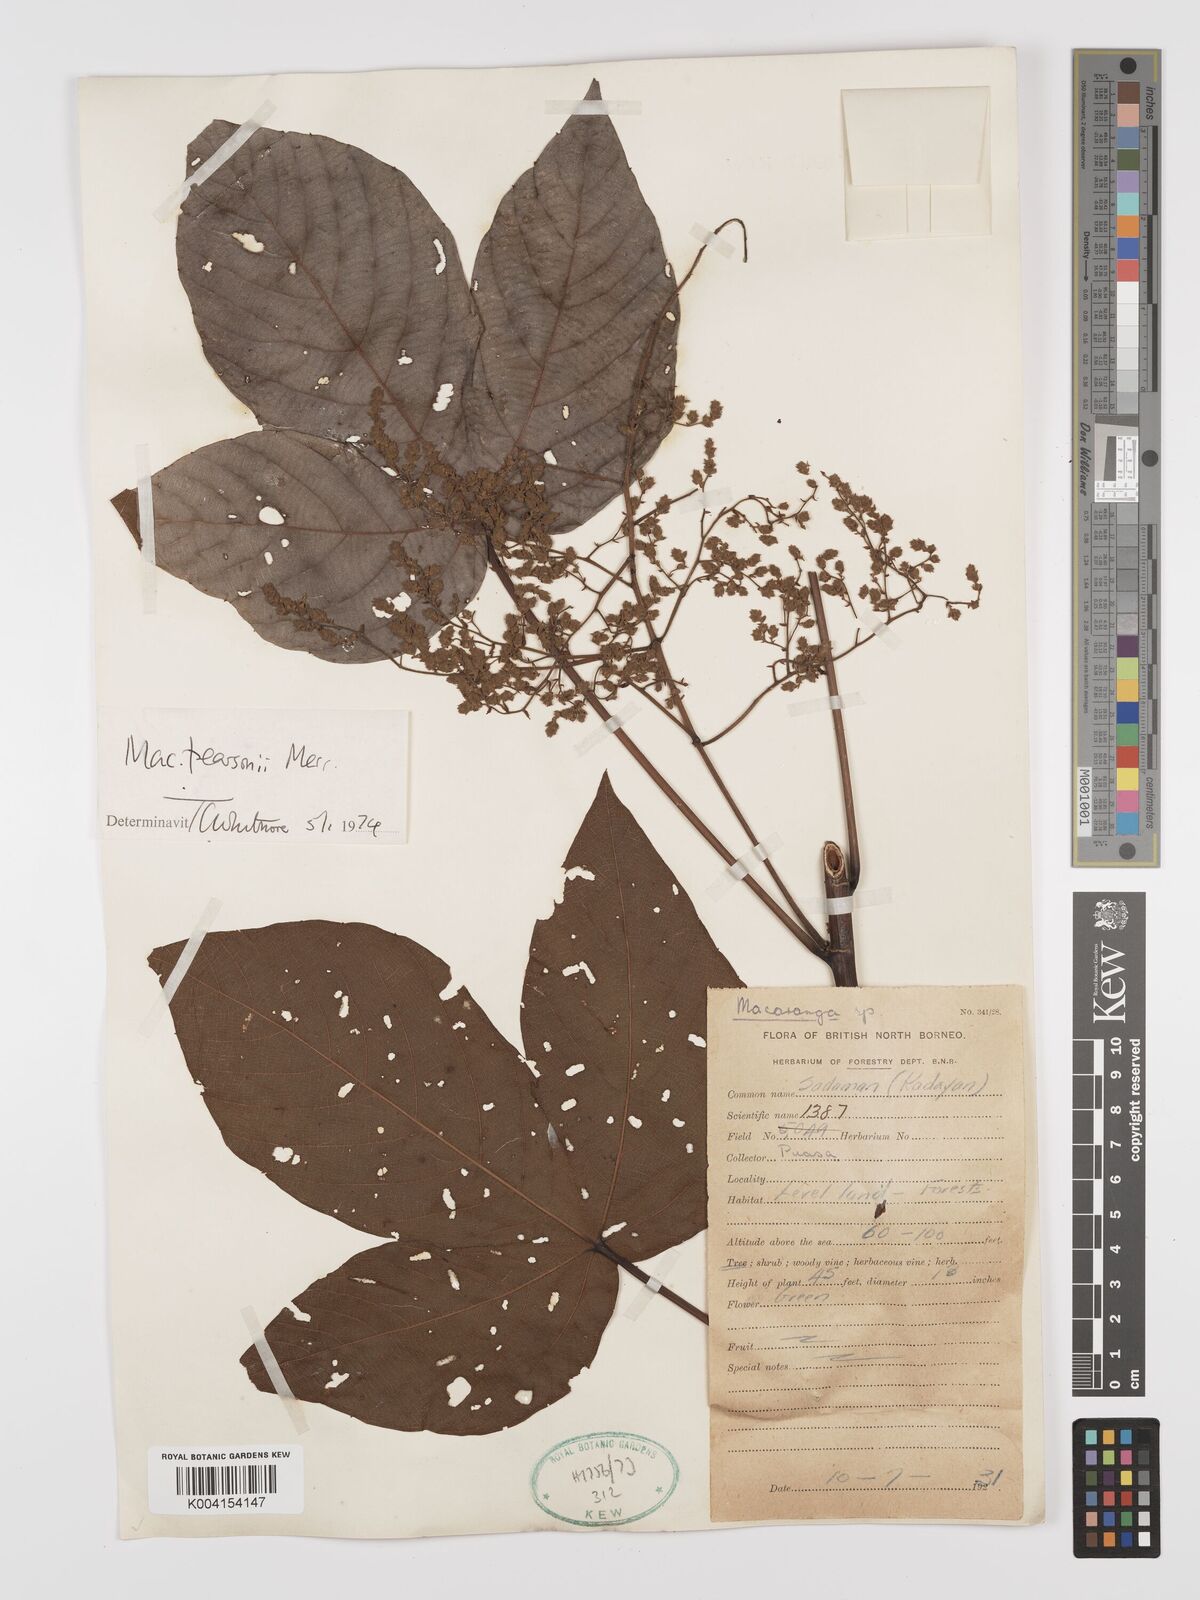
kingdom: Plantae
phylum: Tracheophyta
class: Magnoliopsida
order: Malpighiales
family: Euphorbiaceae
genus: Macaranga
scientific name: Macaranga pearsonii
